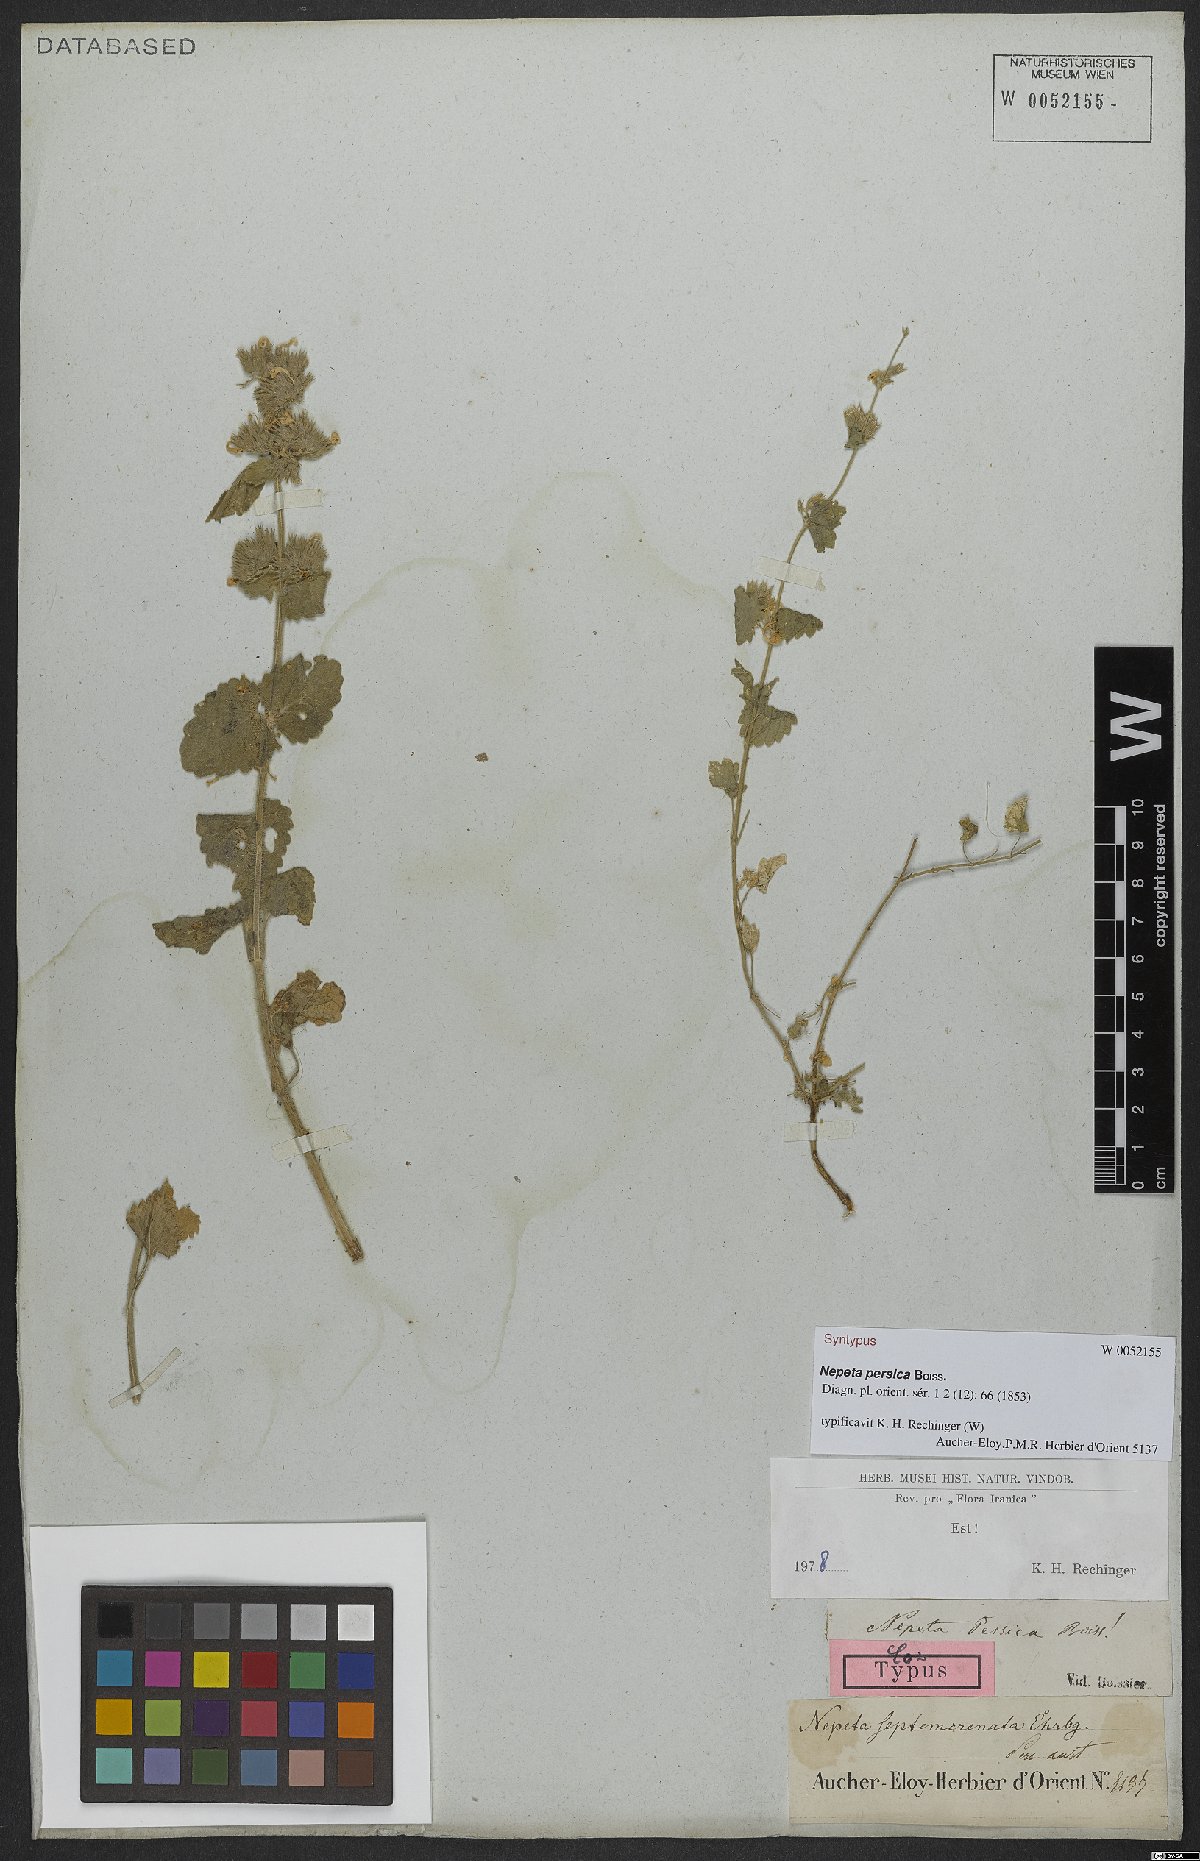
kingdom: Plantae
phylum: Tracheophyta
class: Magnoliopsida
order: Lamiales
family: Lamiaceae
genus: Nepeta
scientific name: Nepeta persica
